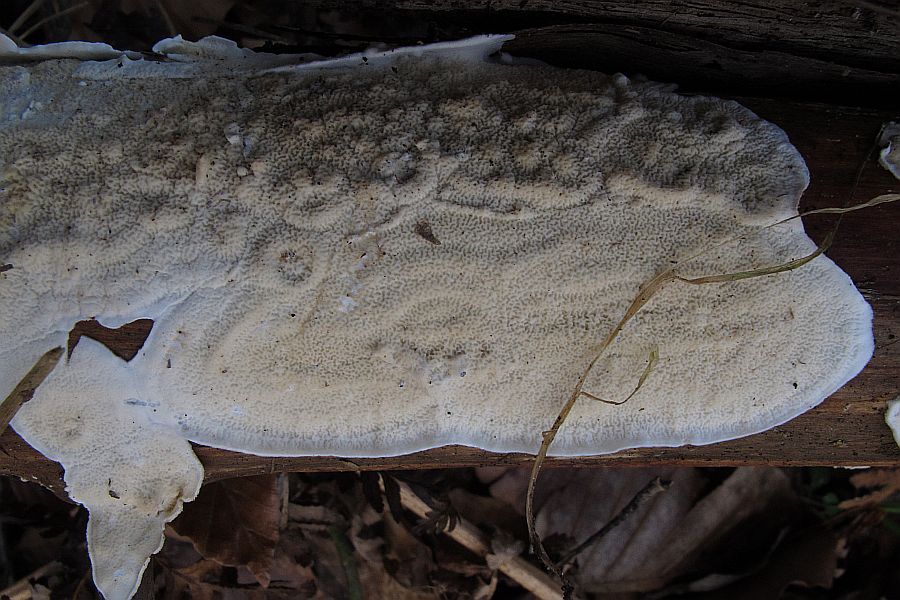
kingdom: Fungi
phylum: Basidiomycota
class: Agaricomycetes
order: Polyporales
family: Irpicaceae
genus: Byssomerulius
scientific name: Byssomerulius corium
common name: læder-åresvamp
